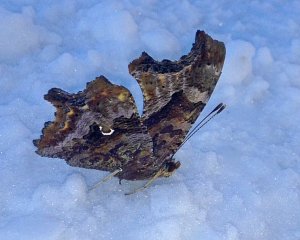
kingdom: Animalia
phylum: Arthropoda
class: Insecta
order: Lepidoptera
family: Nymphalidae
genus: Polygonia
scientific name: Polygonia comma
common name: Eastern Comma
